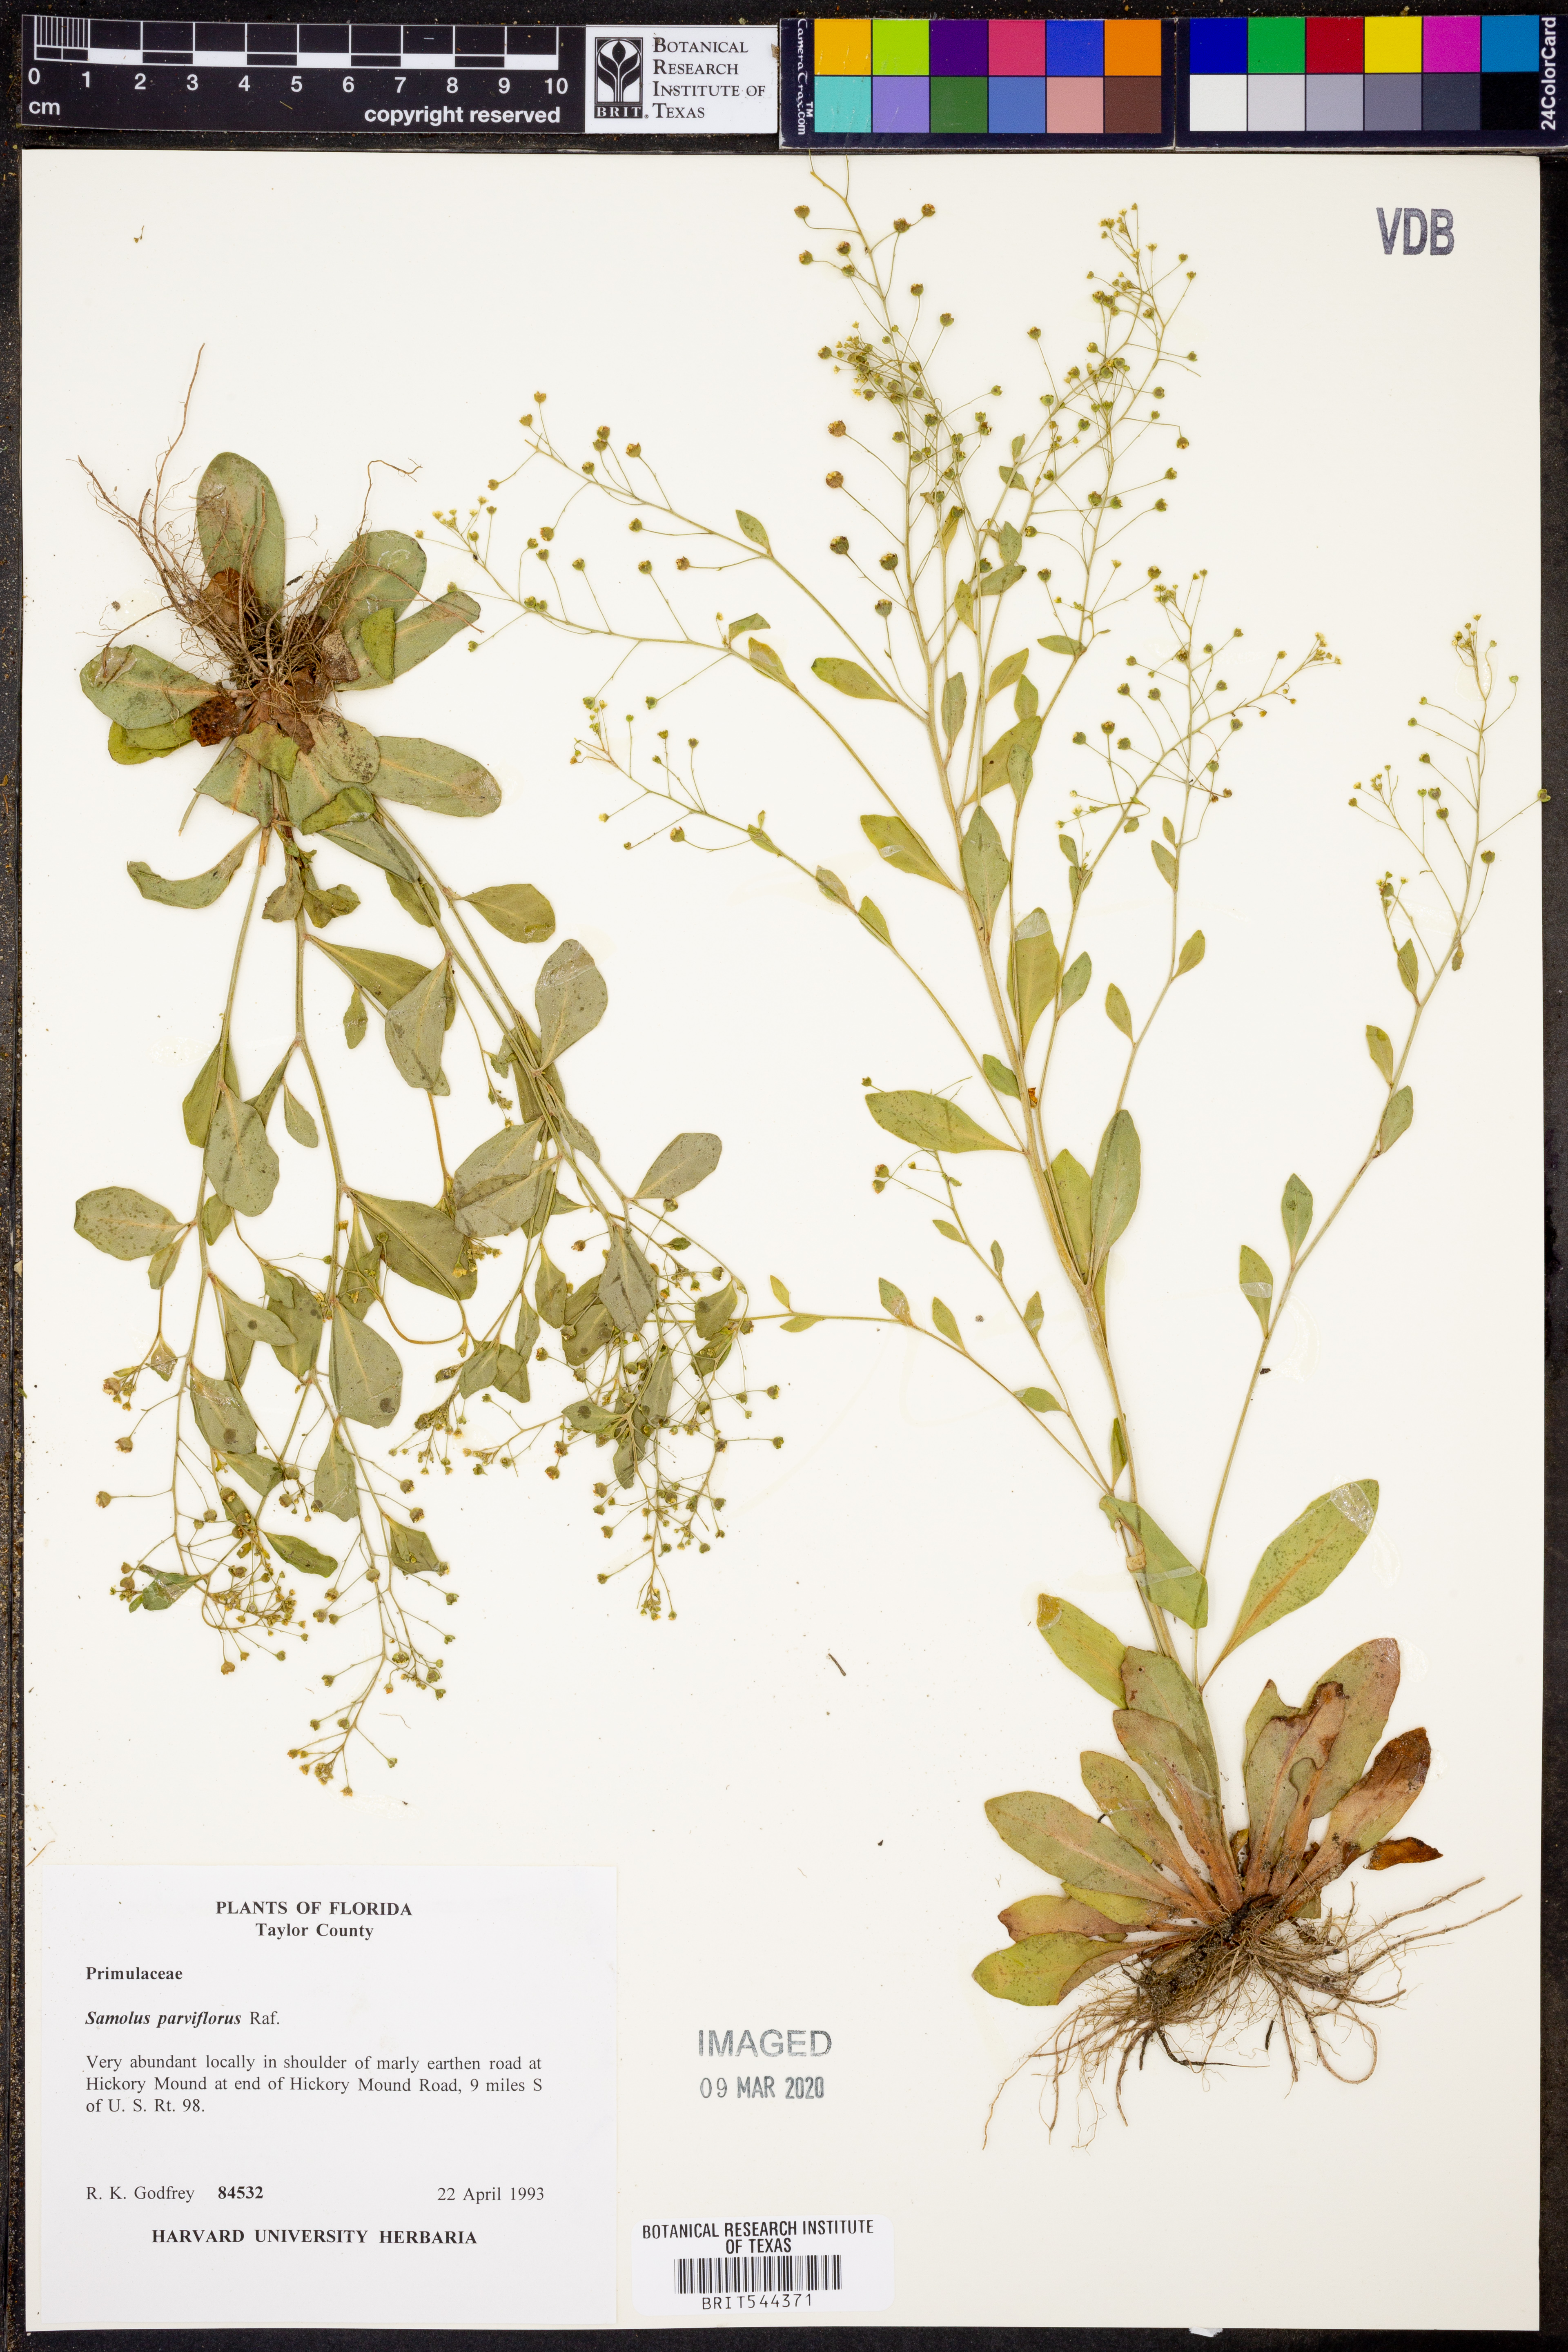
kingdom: Plantae
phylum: Tracheophyta
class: Magnoliopsida
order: Ericales
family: Primulaceae
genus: Samolus
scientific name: Samolus parviflorus
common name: False water pimpernel
